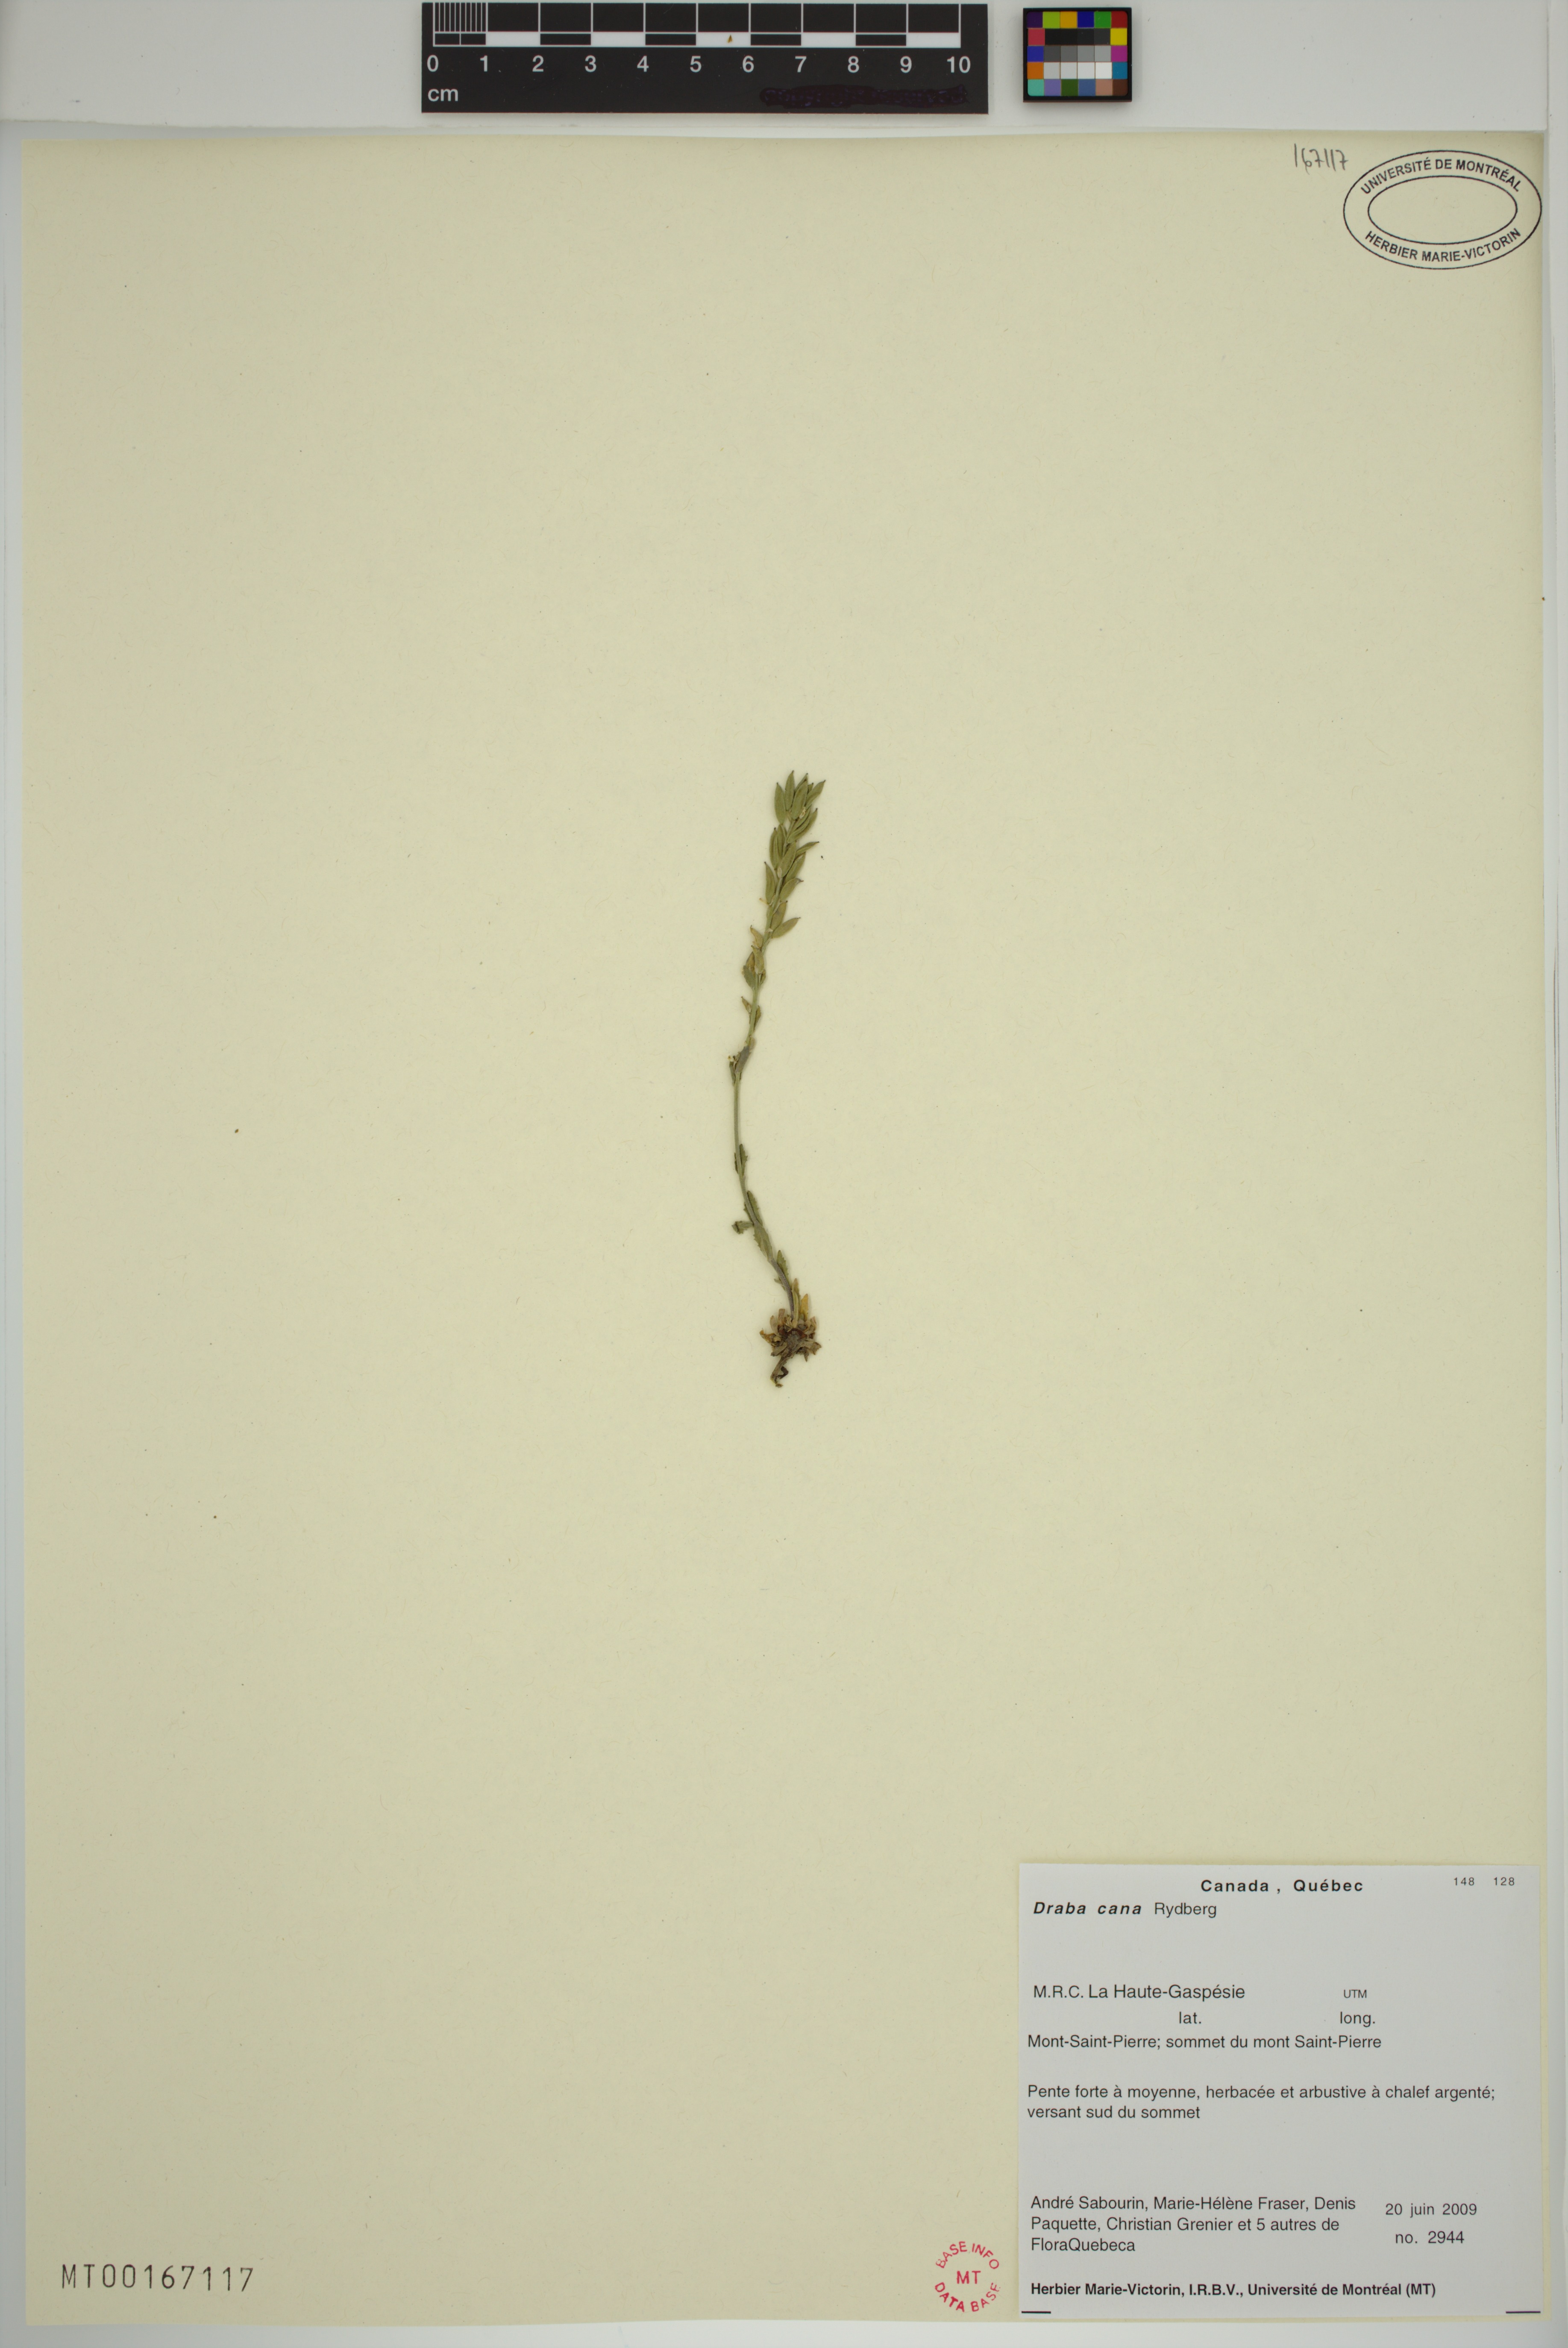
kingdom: Plantae
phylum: Tracheophyta
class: Magnoliopsida
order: Brassicales
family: Brassicaceae
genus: Draba
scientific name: Draba cana
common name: Hoary draba
